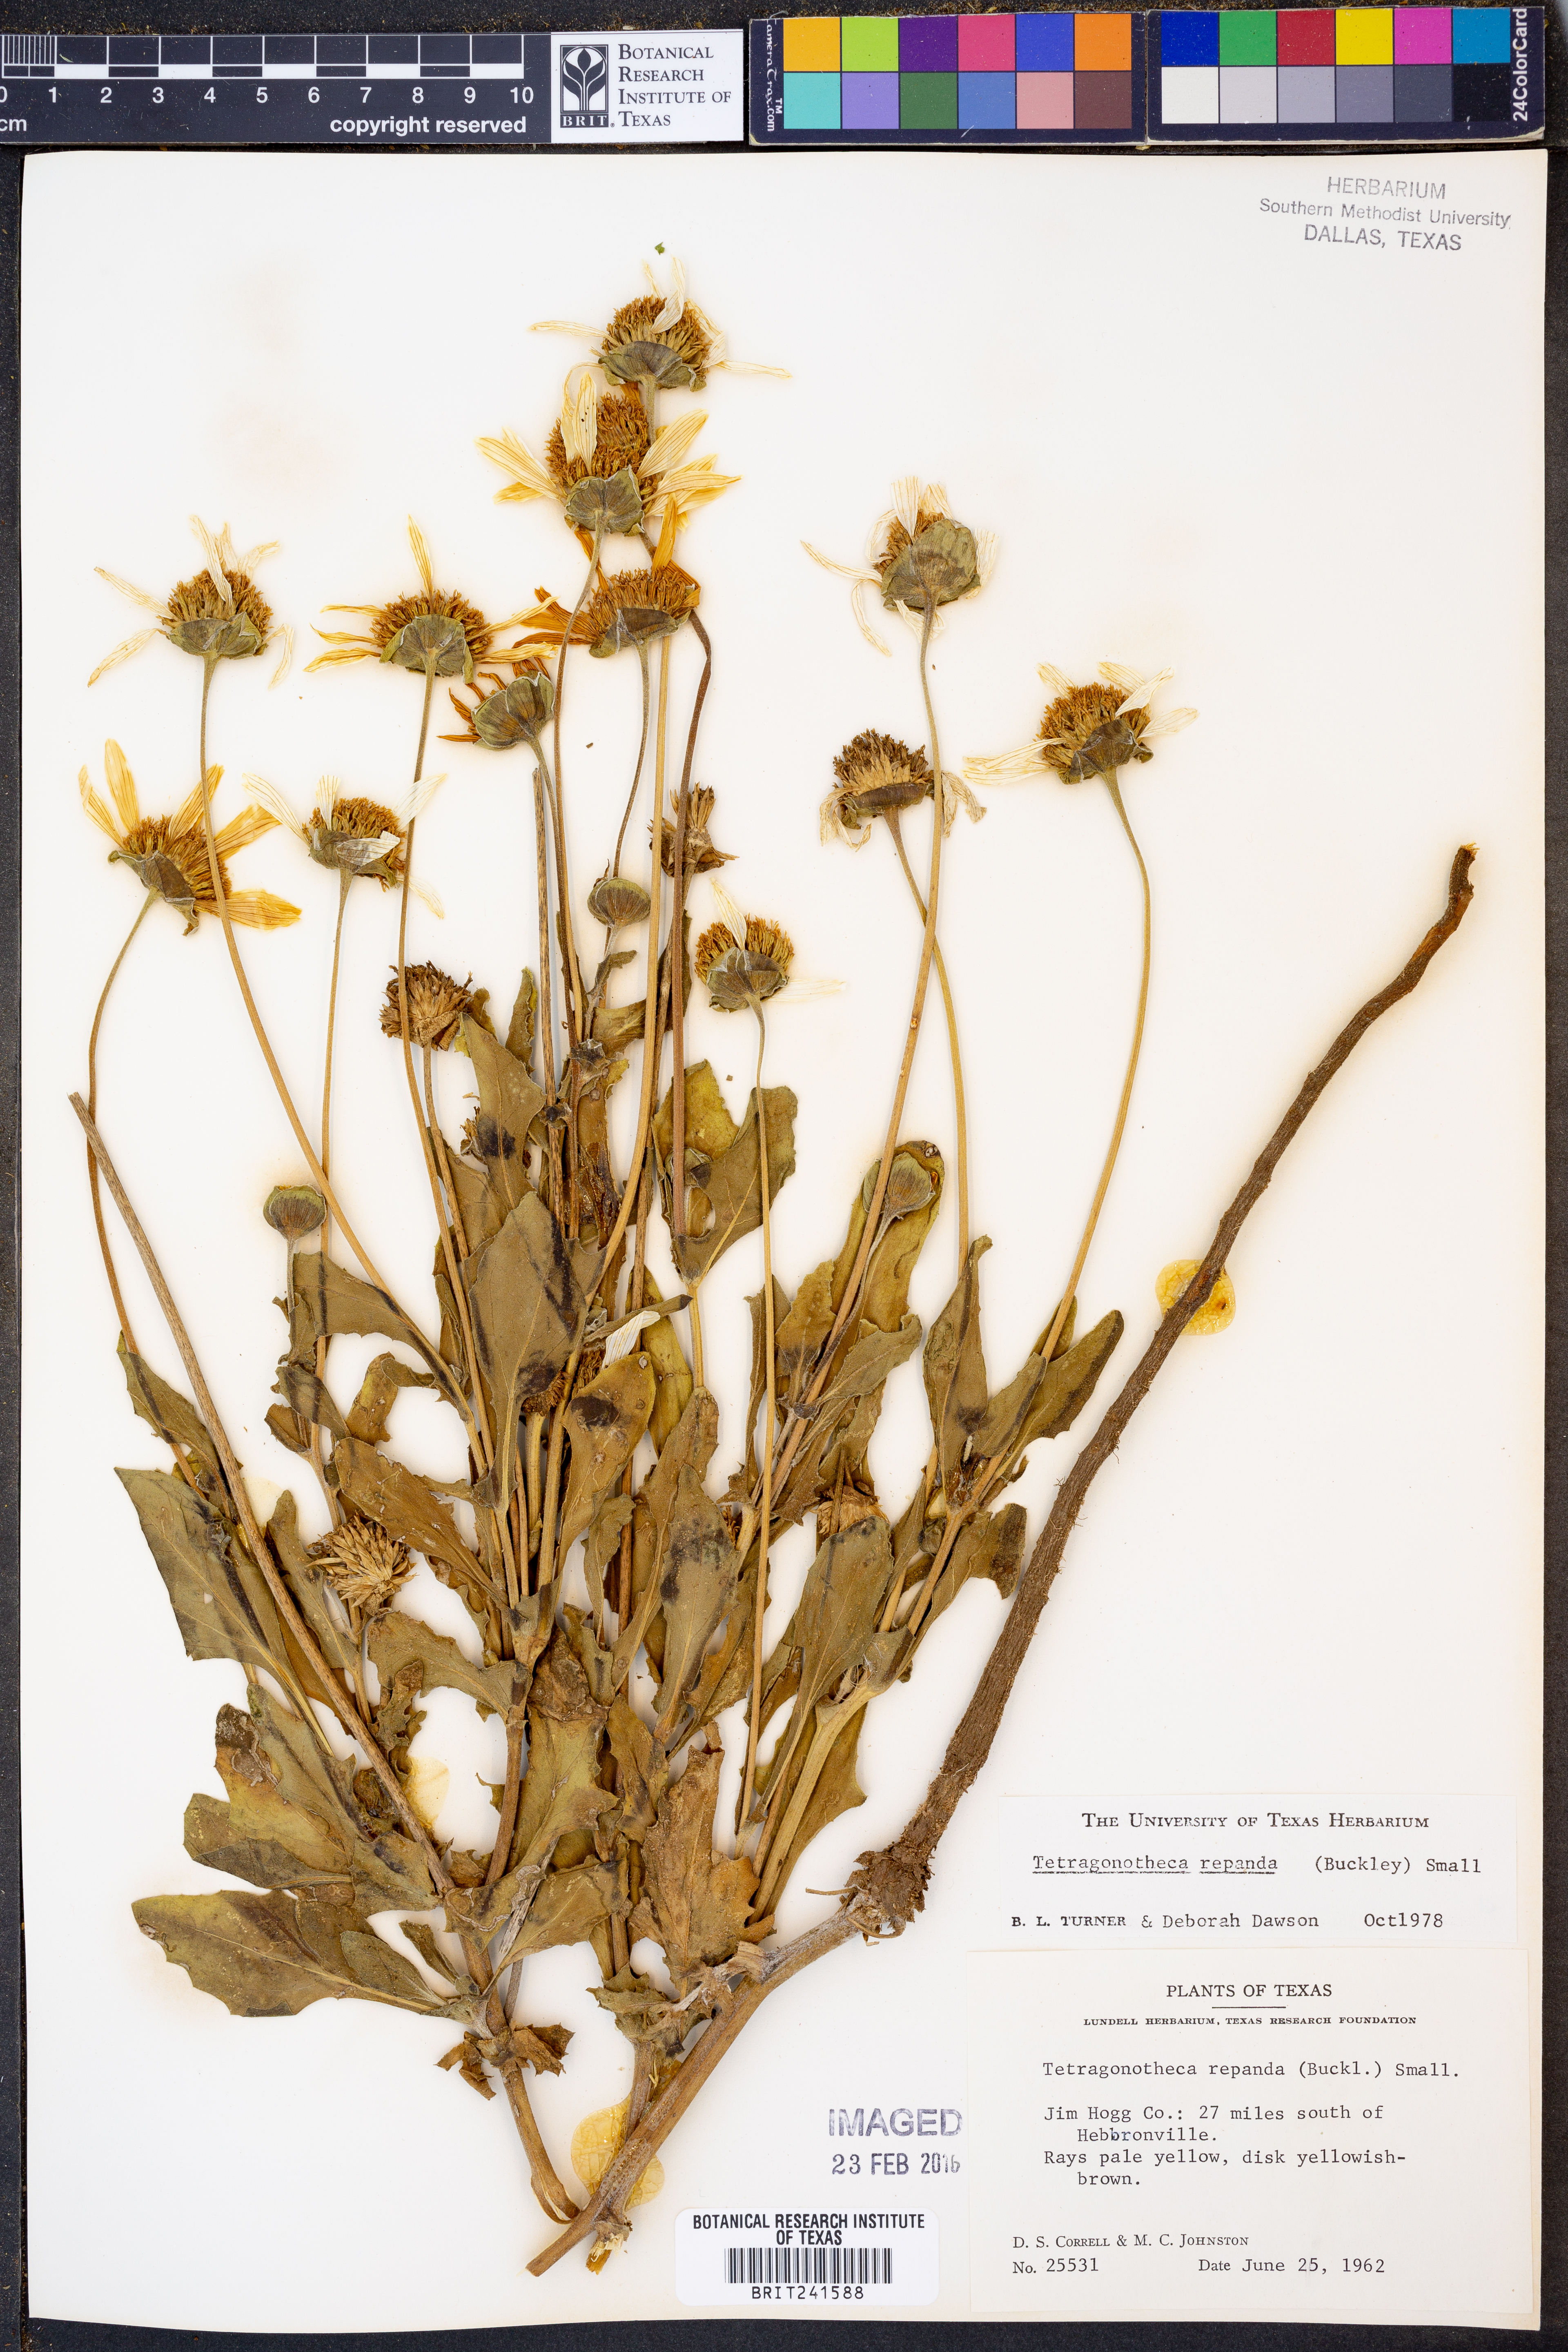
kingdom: Plantae
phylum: Tracheophyta
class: Magnoliopsida
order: Asterales
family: Asteraceae
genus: Tetragonotheca
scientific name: Tetragonotheca repanda
